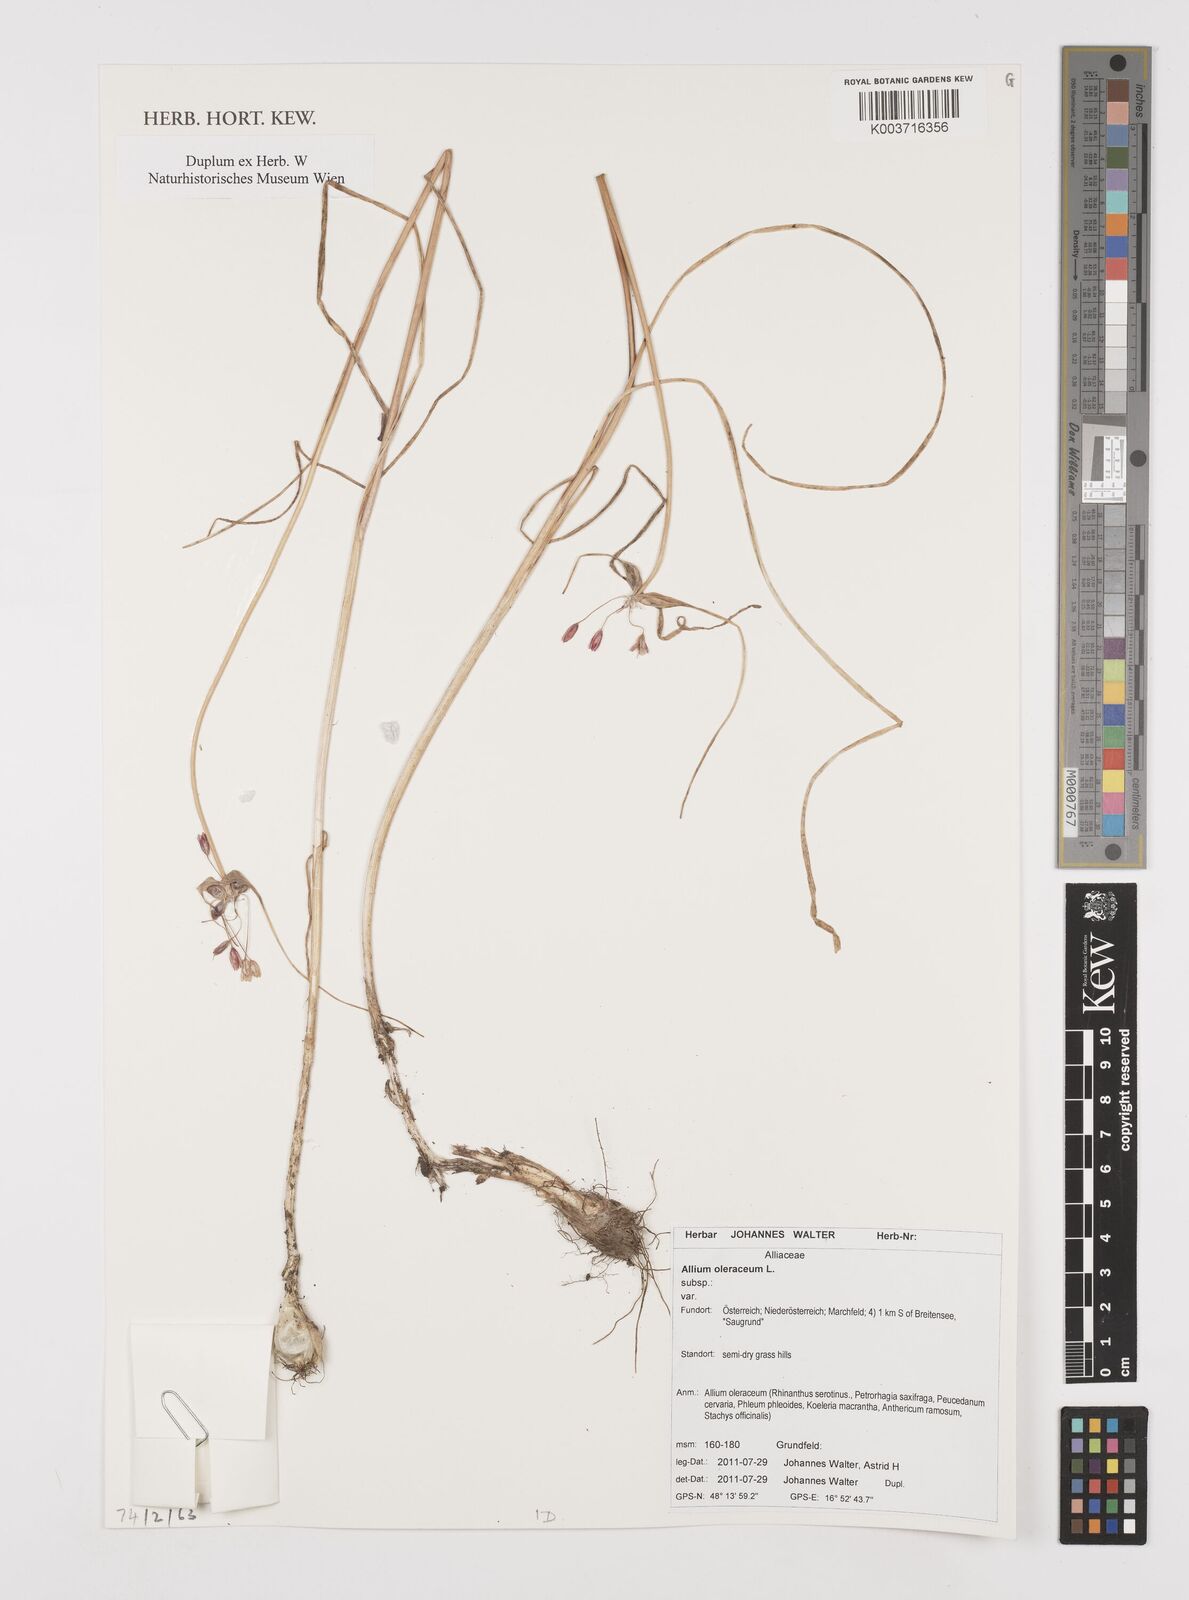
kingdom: Plantae
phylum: Tracheophyta
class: Liliopsida
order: Asparagales
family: Amaryllidaceae
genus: Allium
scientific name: Allium oleraceum
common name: Field garlic
